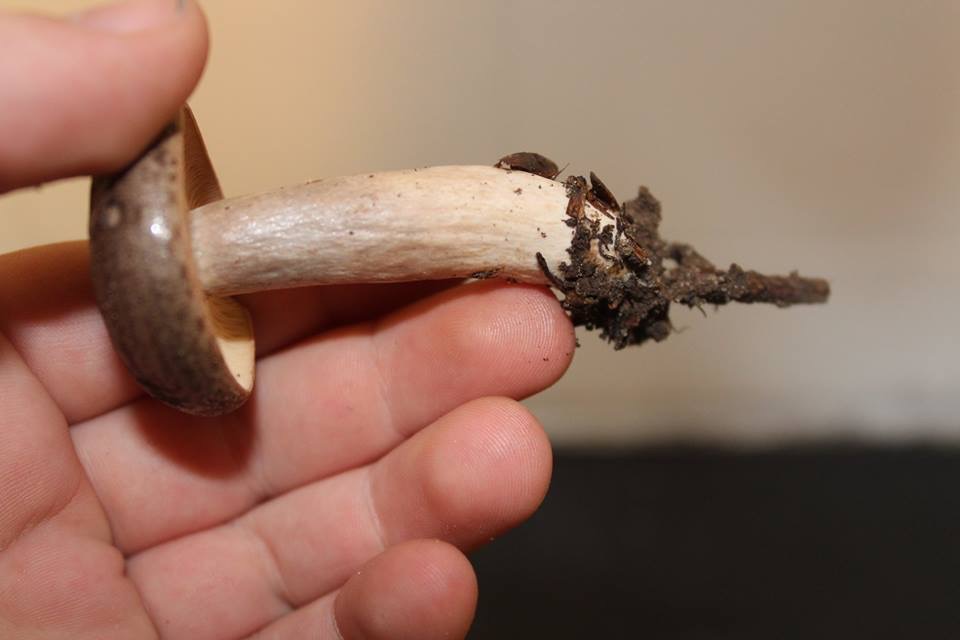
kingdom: Fungi
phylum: Basidiomycota
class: Agaricomycetes
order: Russulales
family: Russulaceae
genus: Lactarius
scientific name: Lactarius blennius
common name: dråbeplettet mælkehat
